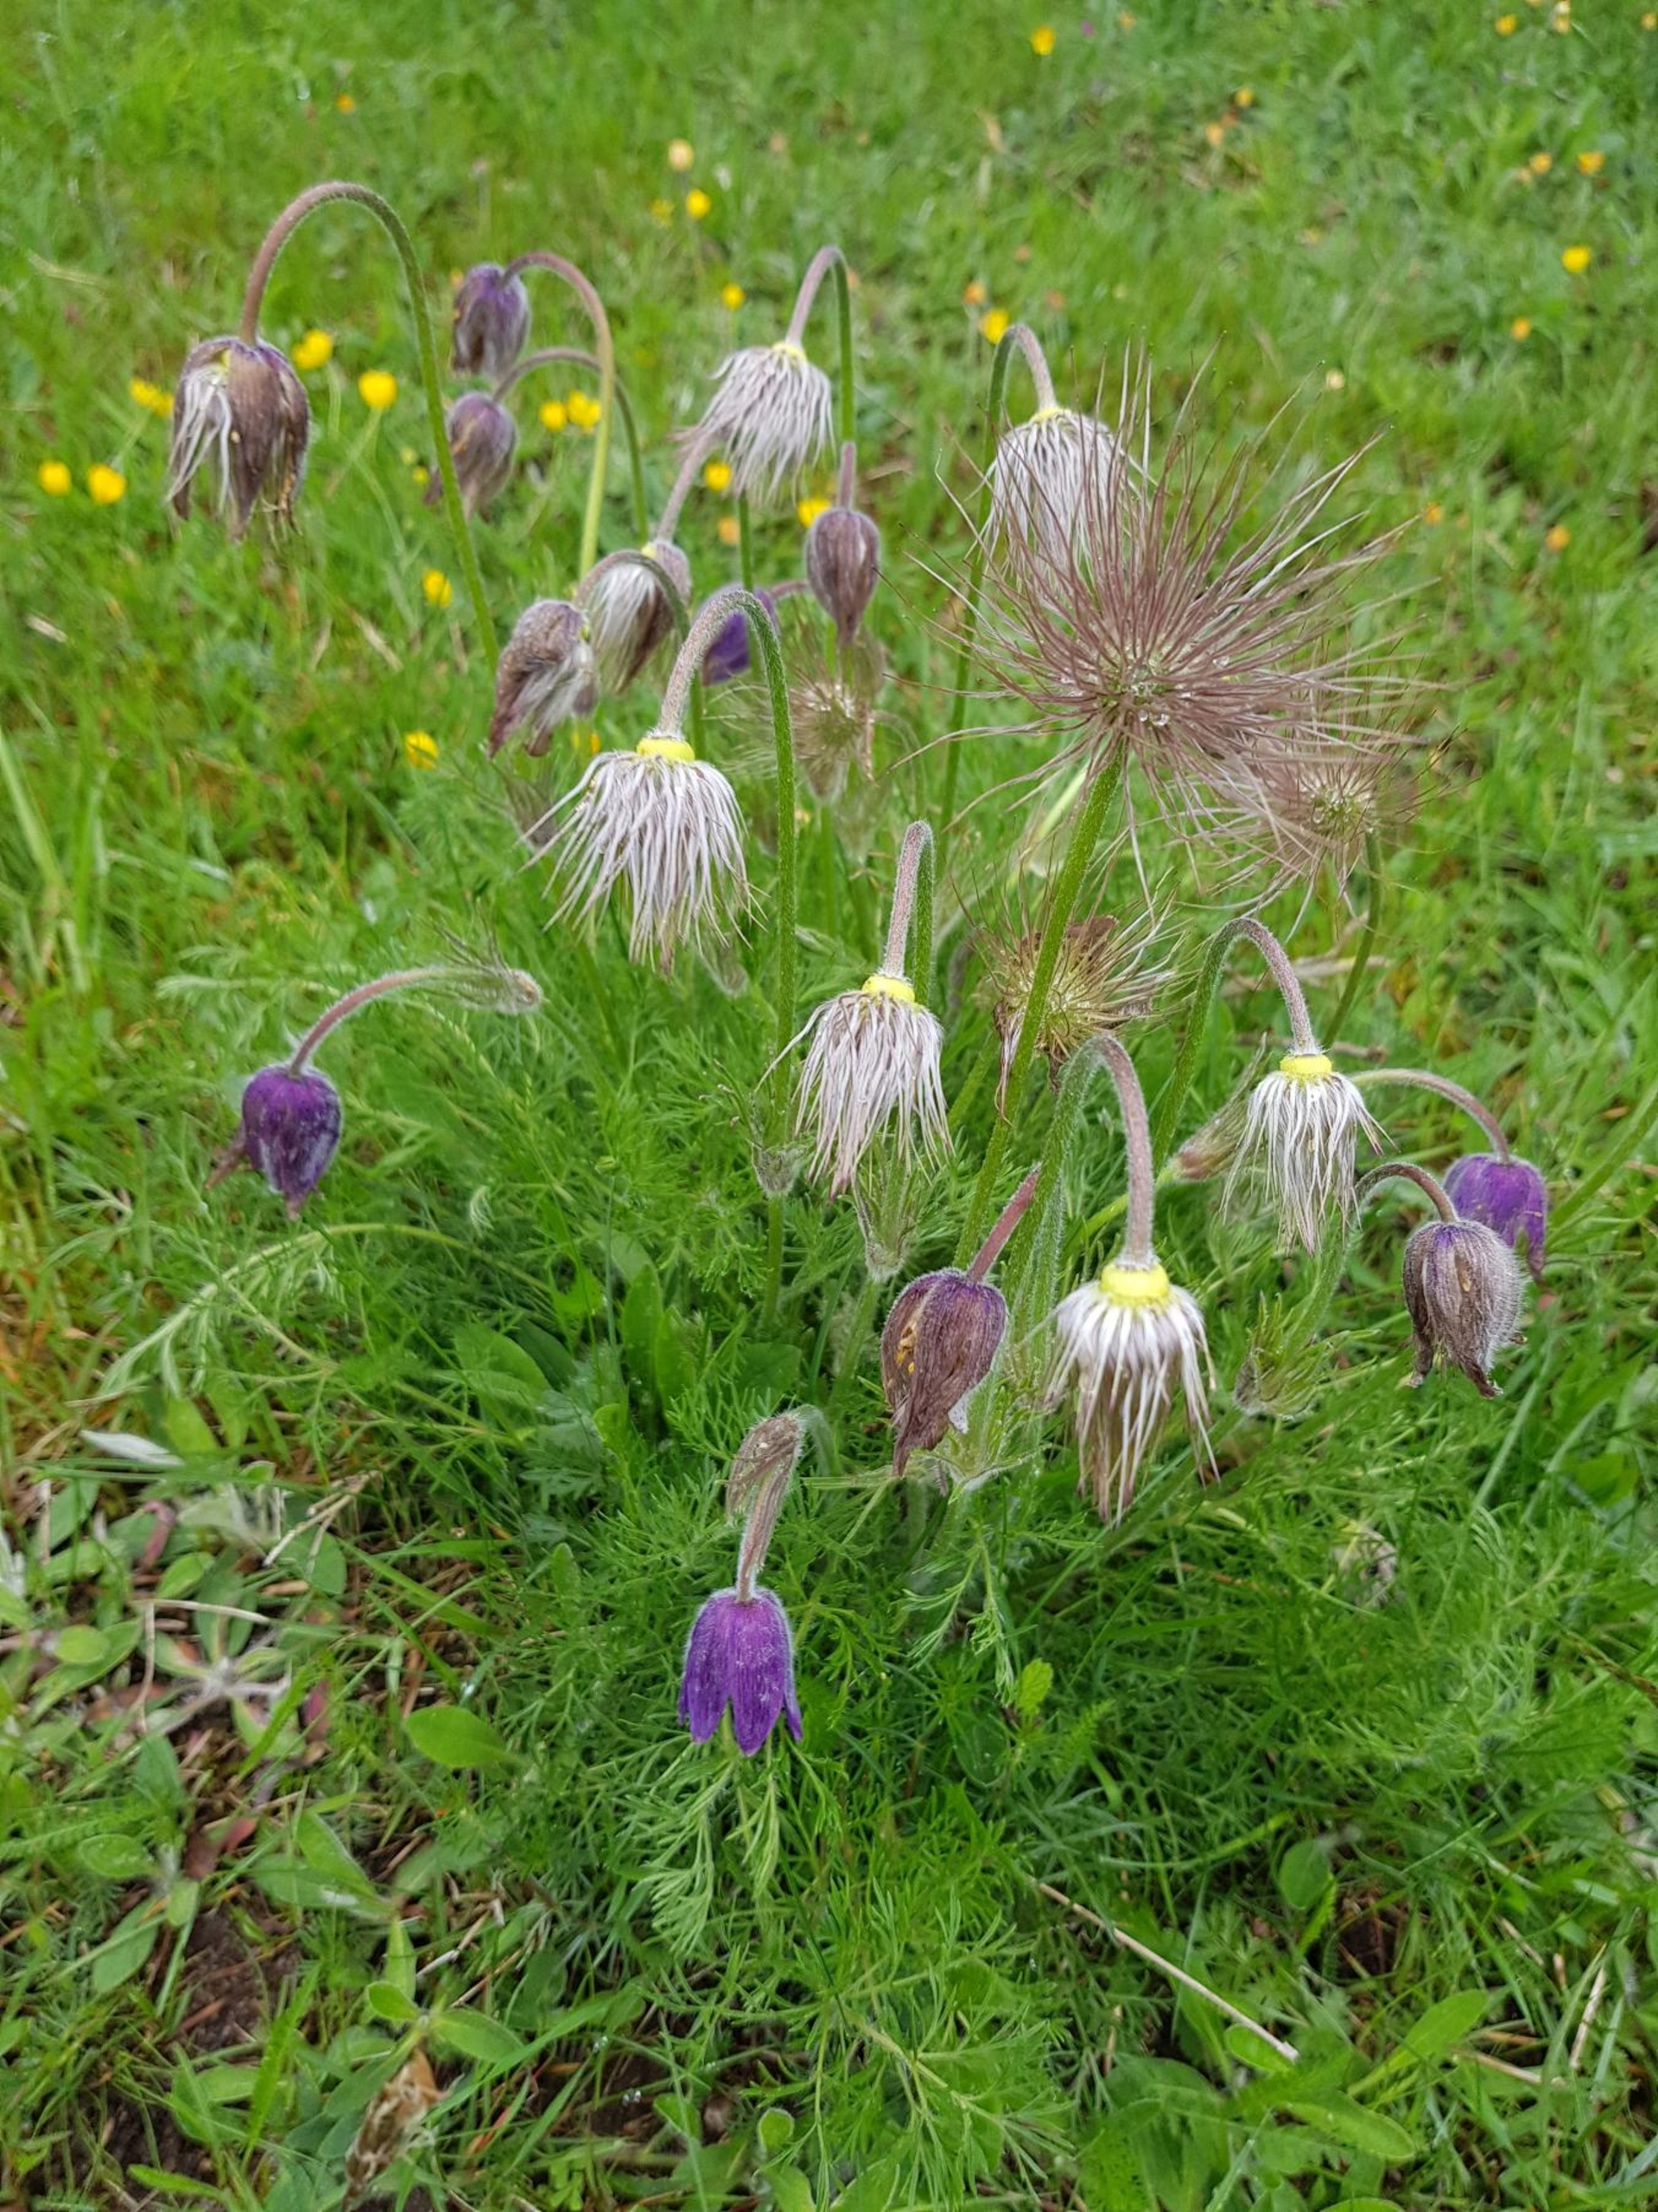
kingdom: Plantae
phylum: Tracheophyta
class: Magnoliopsida
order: Ranunculales
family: Ranunculaceae
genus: Pulsatilla
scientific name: Pulsatilla vulgaris
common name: Opret kobjælde
